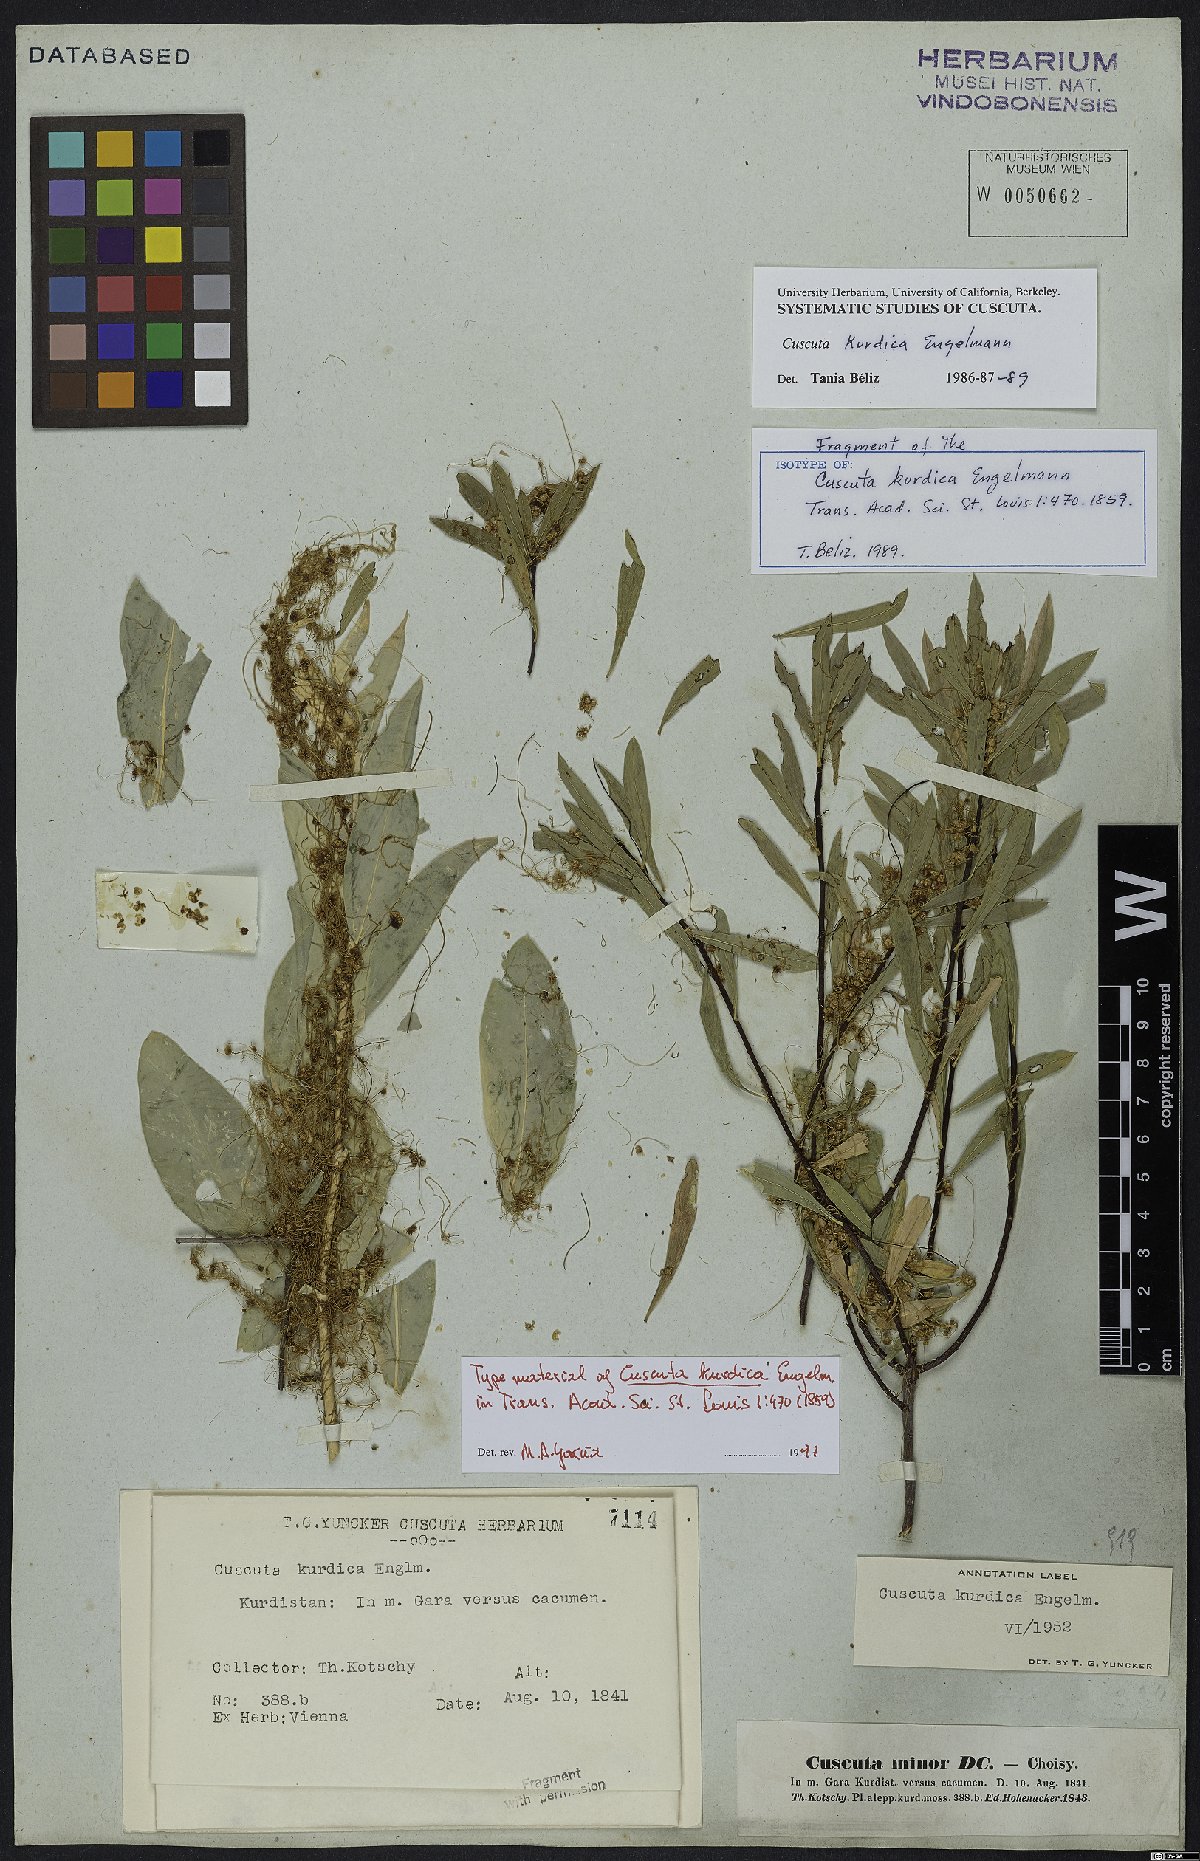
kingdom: Plantae
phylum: Tracheophyta
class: Magnoliopsida
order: Solanales
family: Convolvulaceae
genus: Cuscuta
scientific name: Cuscuta kurdica
